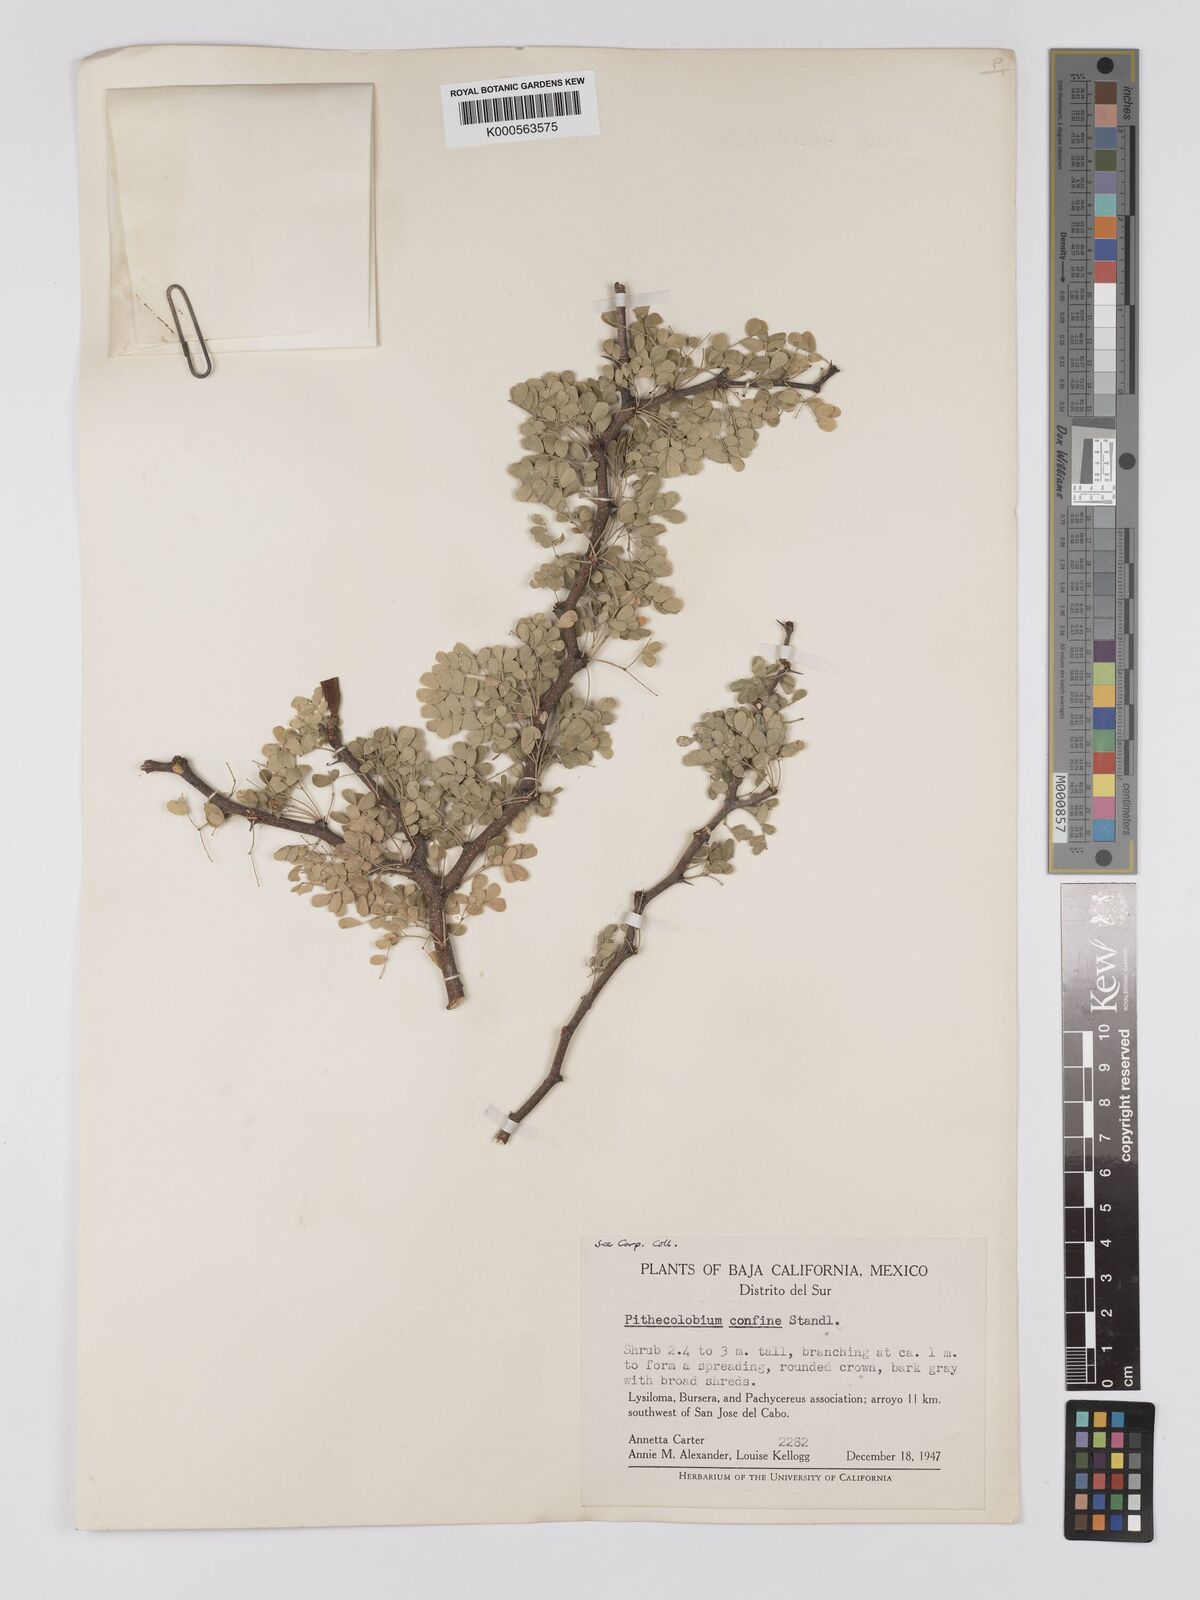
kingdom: Plantae
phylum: Tracheophyta
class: Magnoliopsida
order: Fabales
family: Fabaceae
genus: Chloroleucon
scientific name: Chloroleucon
